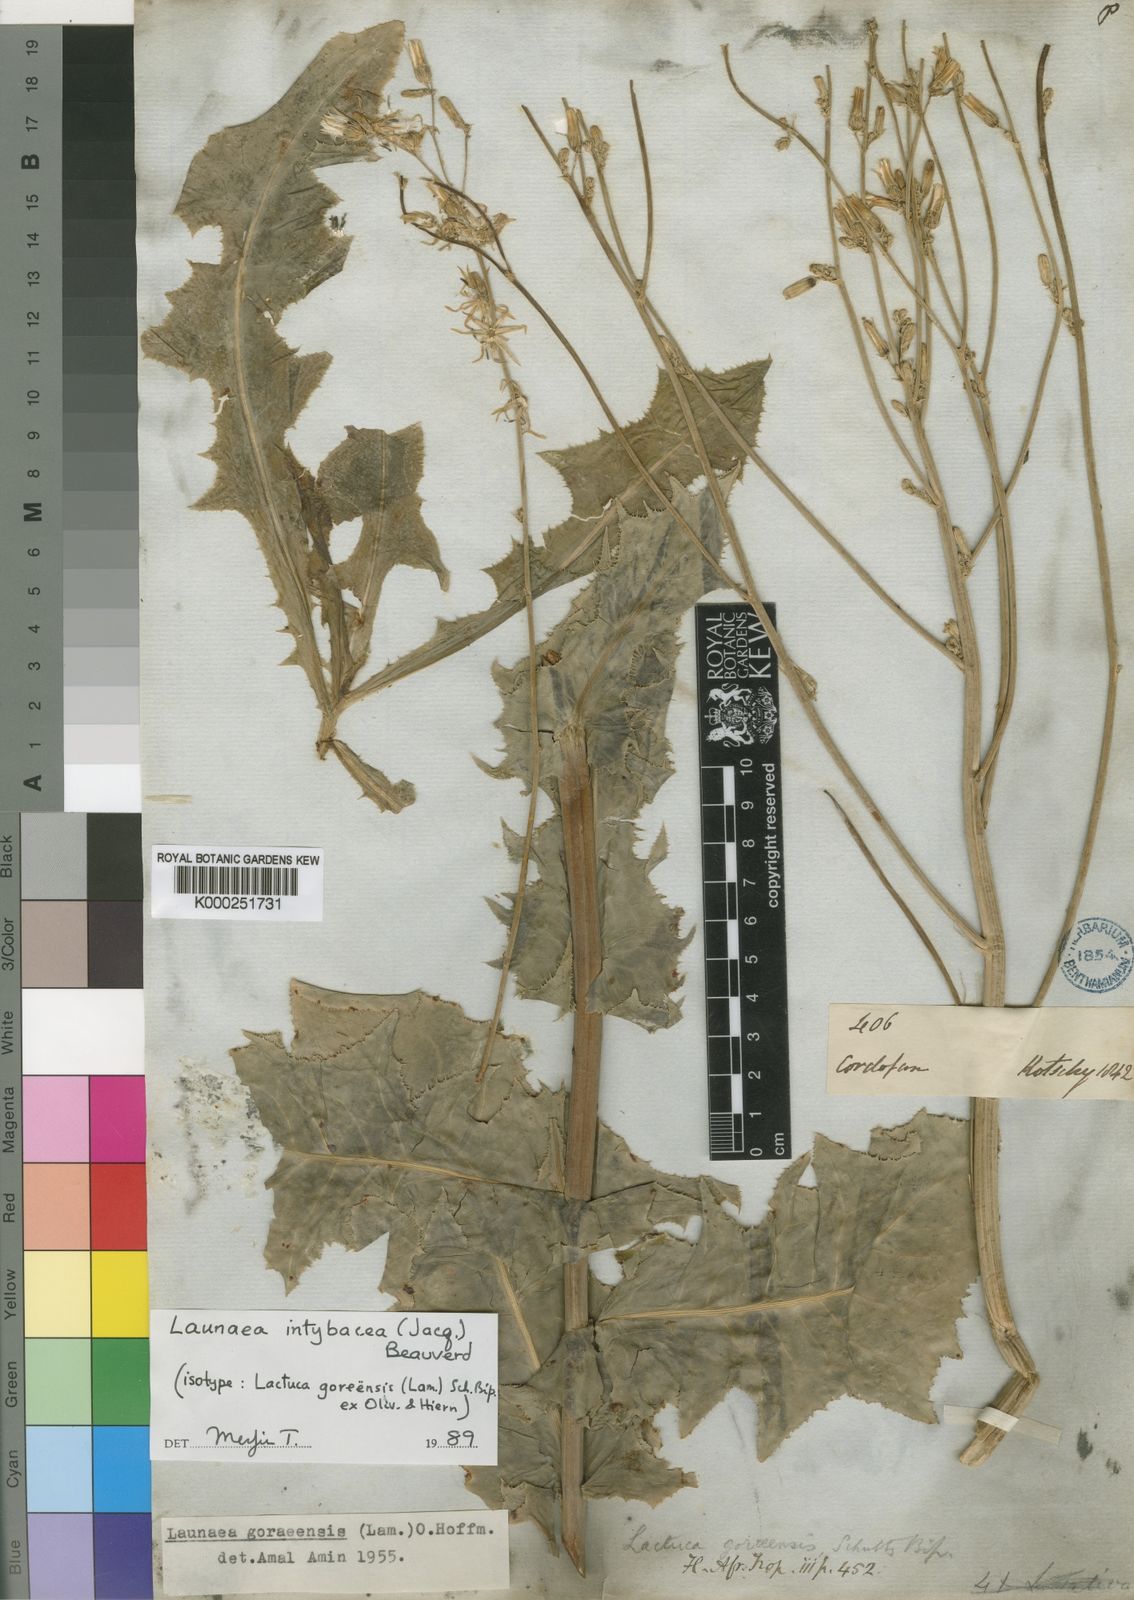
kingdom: Plantae
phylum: Tracheophyta
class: Magnoliopsida
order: Asterales
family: Asteraceae
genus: Launaea
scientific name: Launaea intybacea
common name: Achicoria azul
